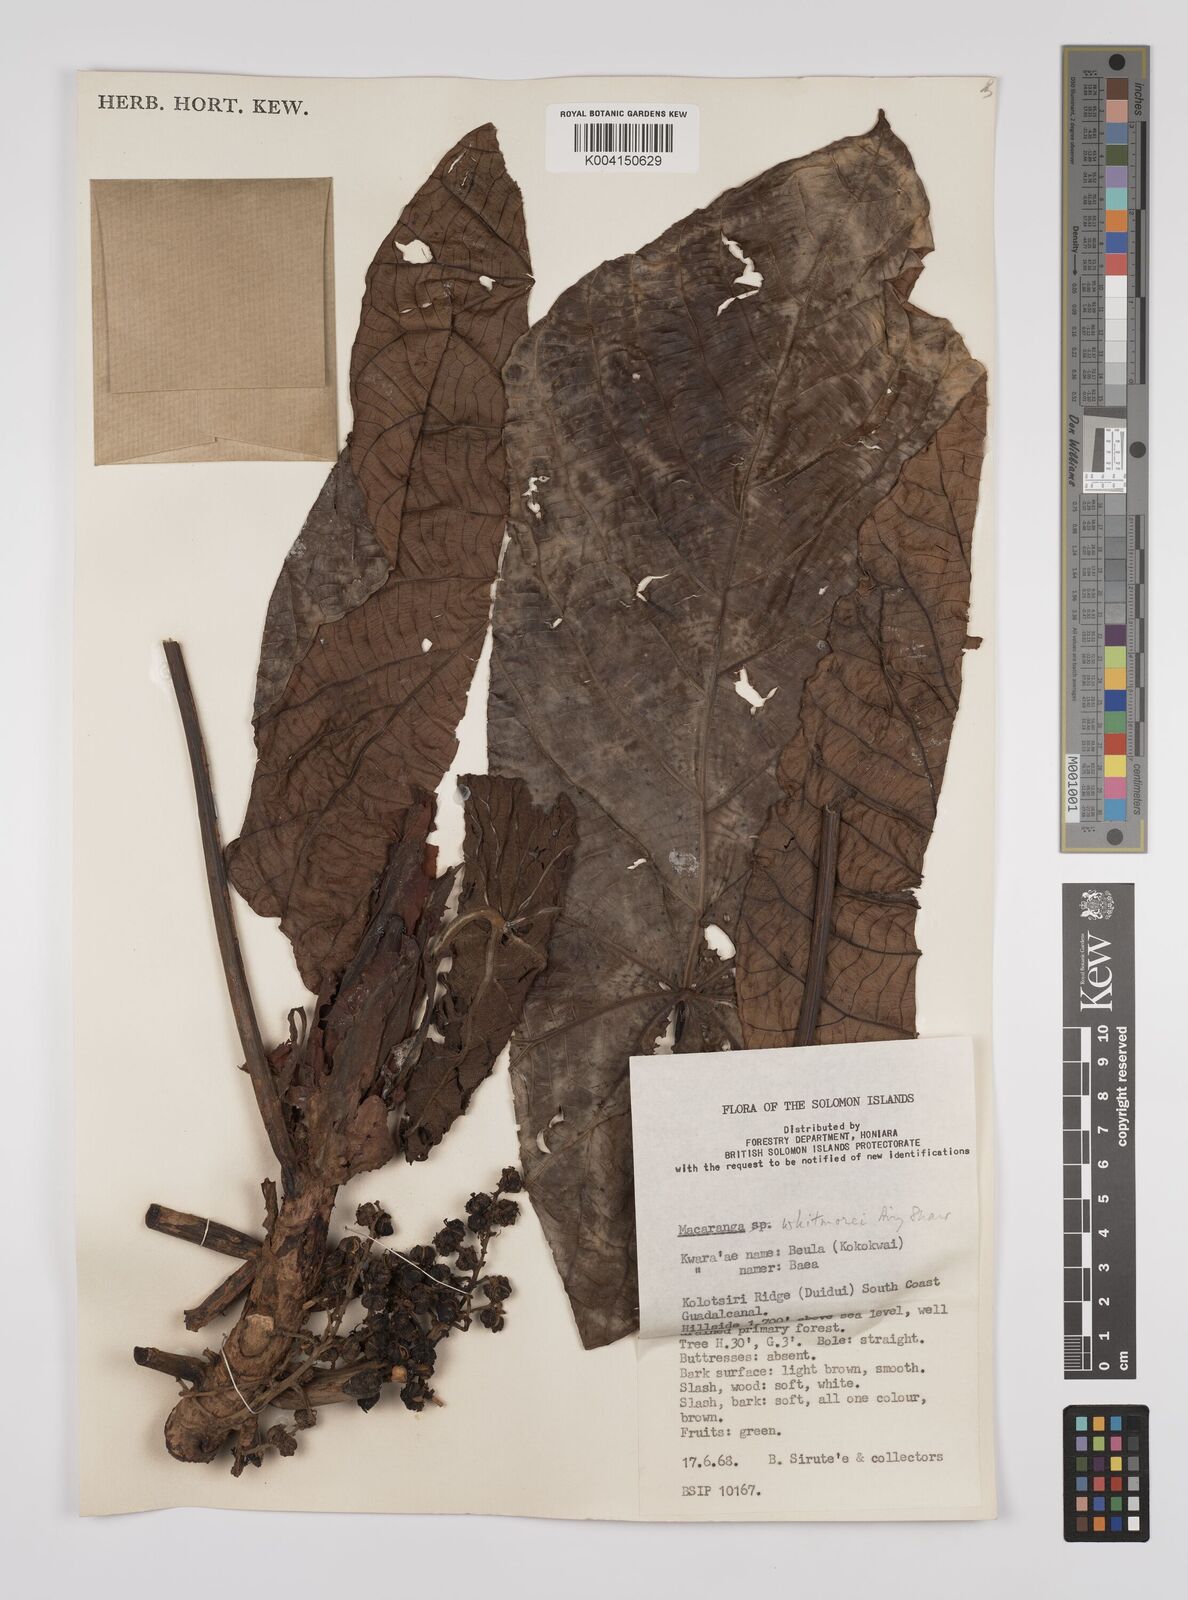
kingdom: Plantae
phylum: Tracheophyta
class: Magnoliopsida
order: Malpighiales
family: Euphorbiaceae
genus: Macaranga
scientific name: Macaranga whitmorei
